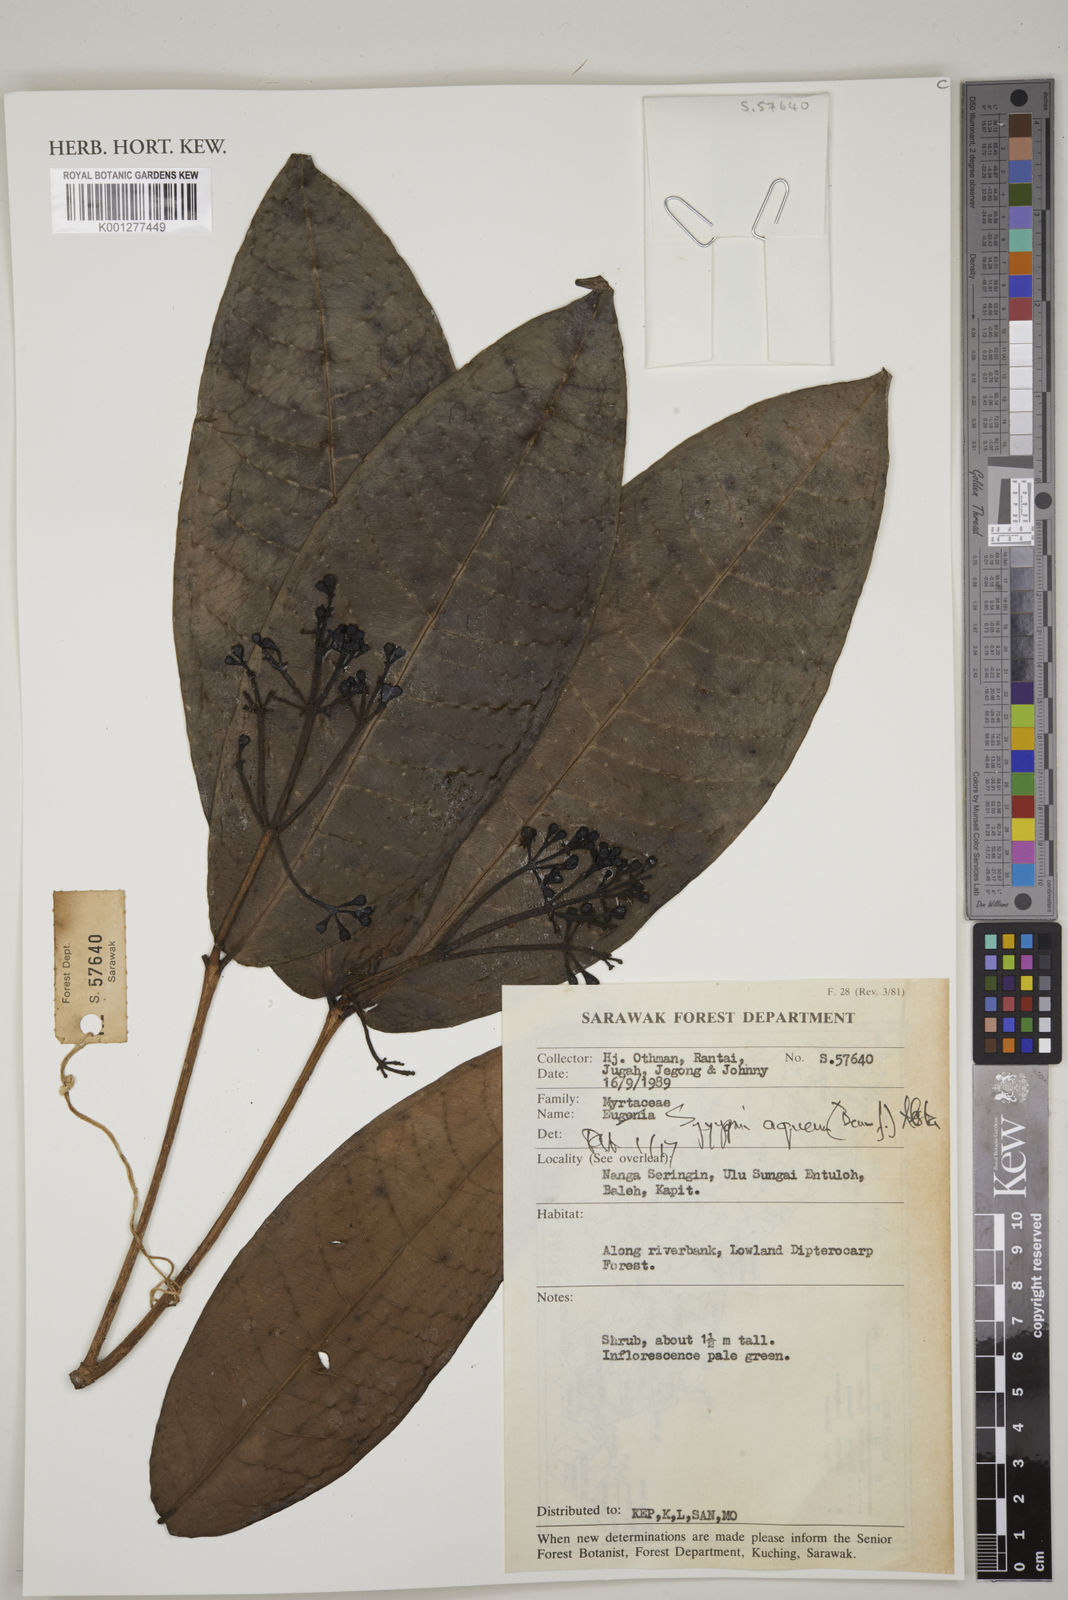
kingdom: Plantae
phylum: Tracheophyta
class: Magnoliopsida
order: Myrtales
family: Myrtaceae
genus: Syzygium
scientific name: Syzygium aqueum
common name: Water-apple
